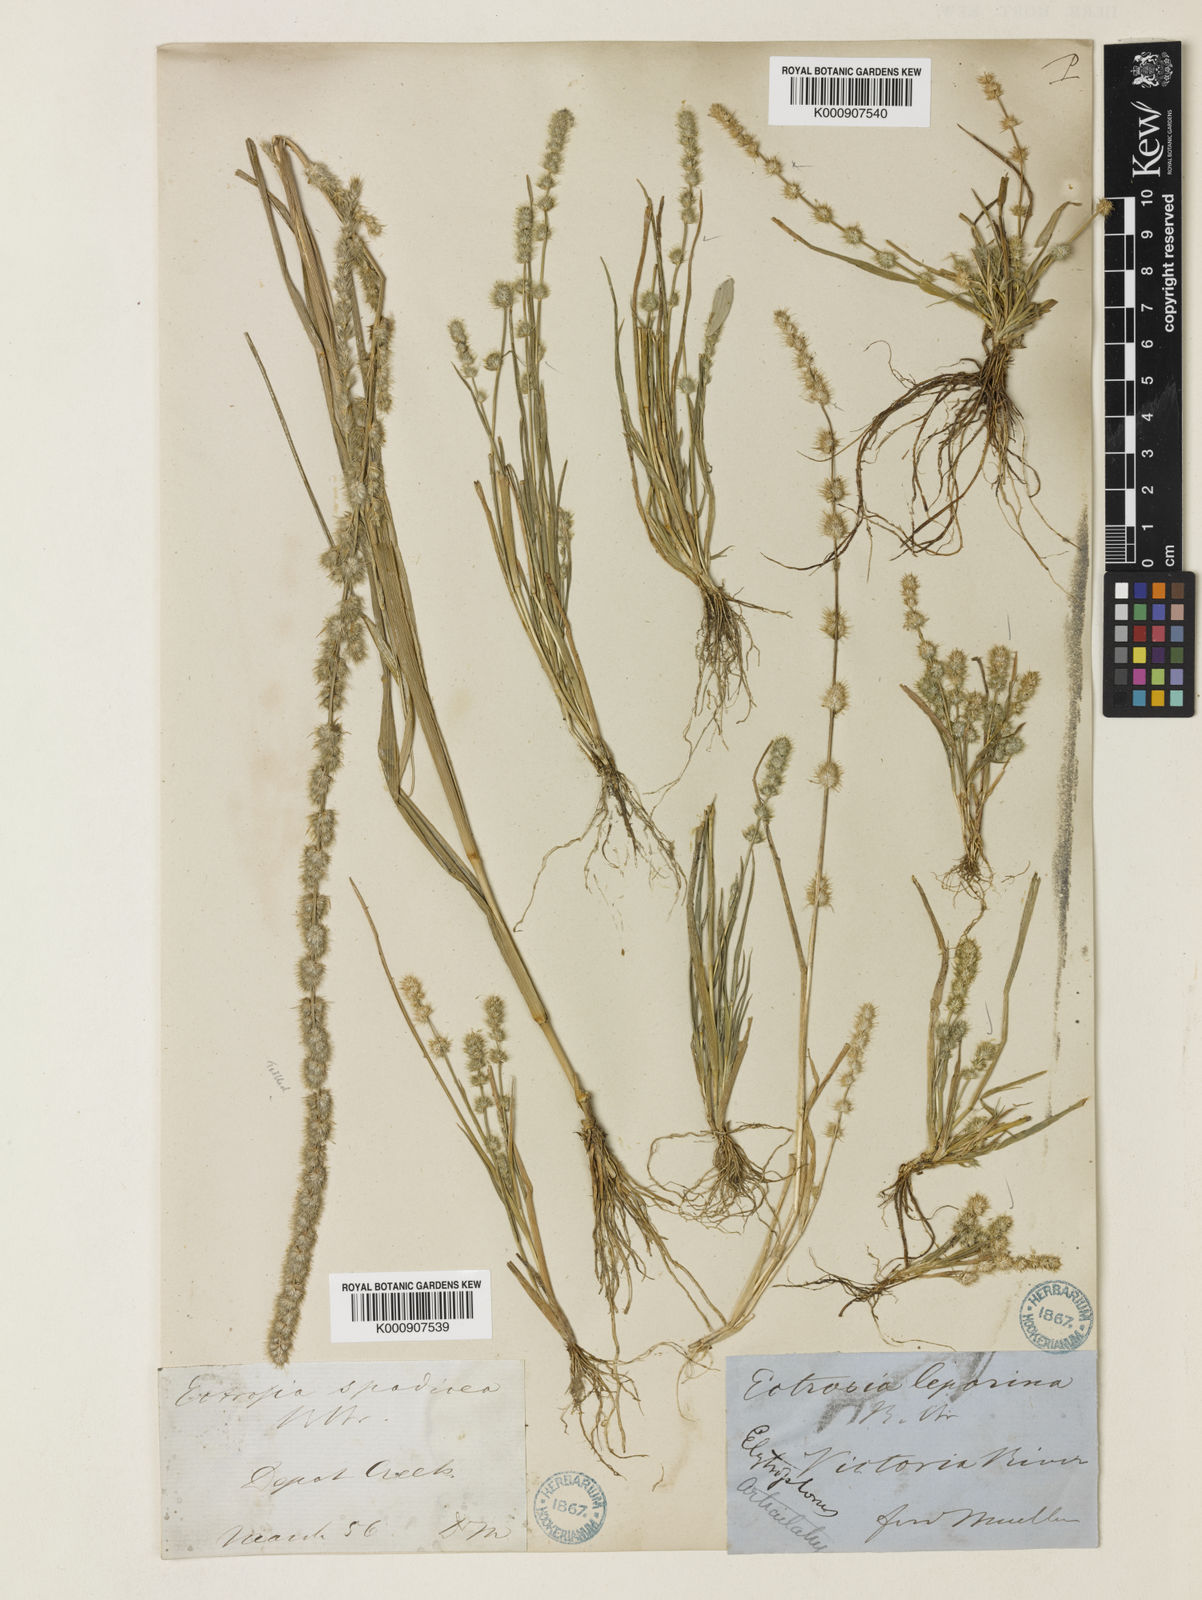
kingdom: Plantae
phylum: Tracheophyta
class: Liliopsida
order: Poales
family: Poaceae
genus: Elytrophorus
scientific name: Elytrophorus spicatus
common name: Spike grass
